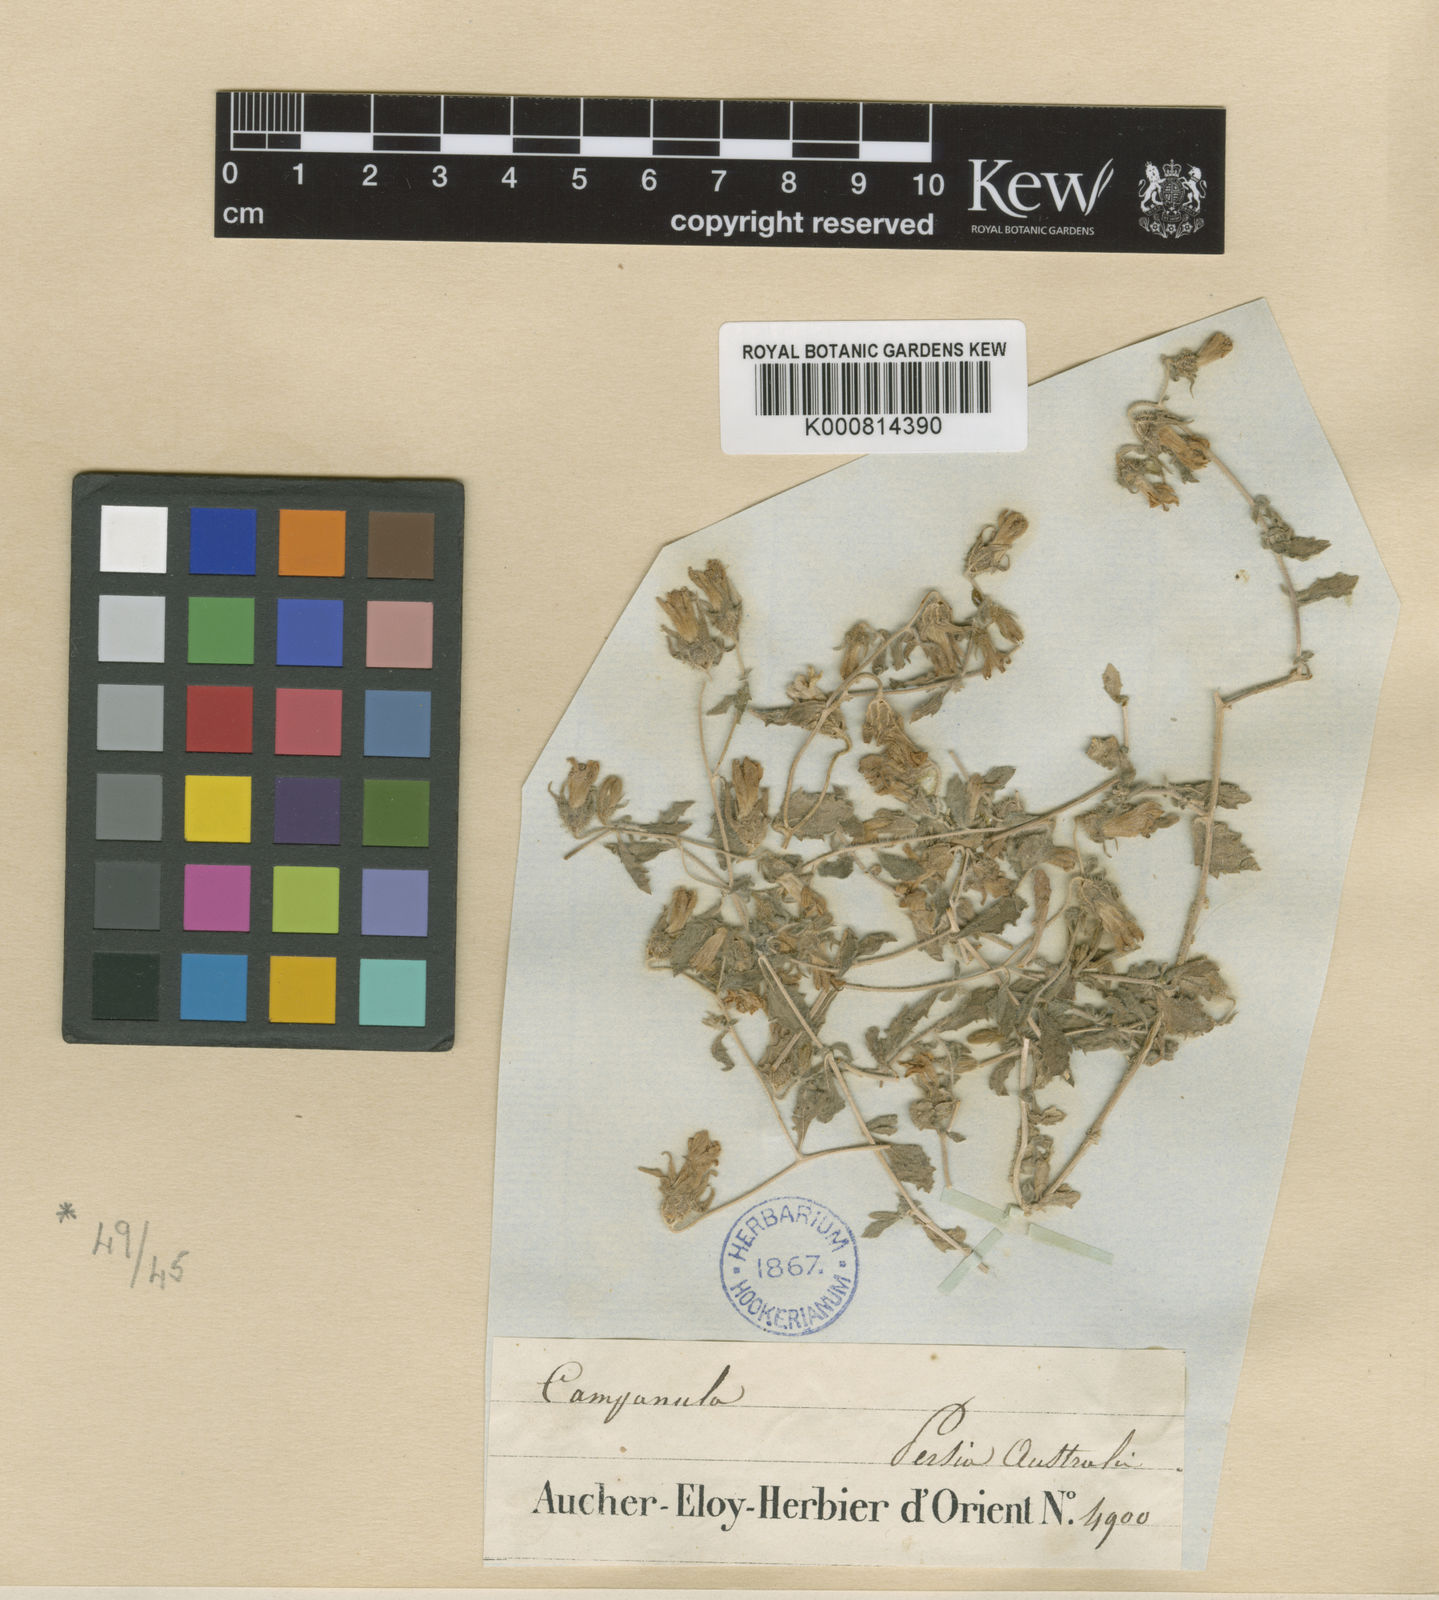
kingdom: Plantae
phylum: Tracheophyta
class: Magnoliopsida
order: Asterales
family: Campanulaceae
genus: Campanula
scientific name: Campanula incanescens
